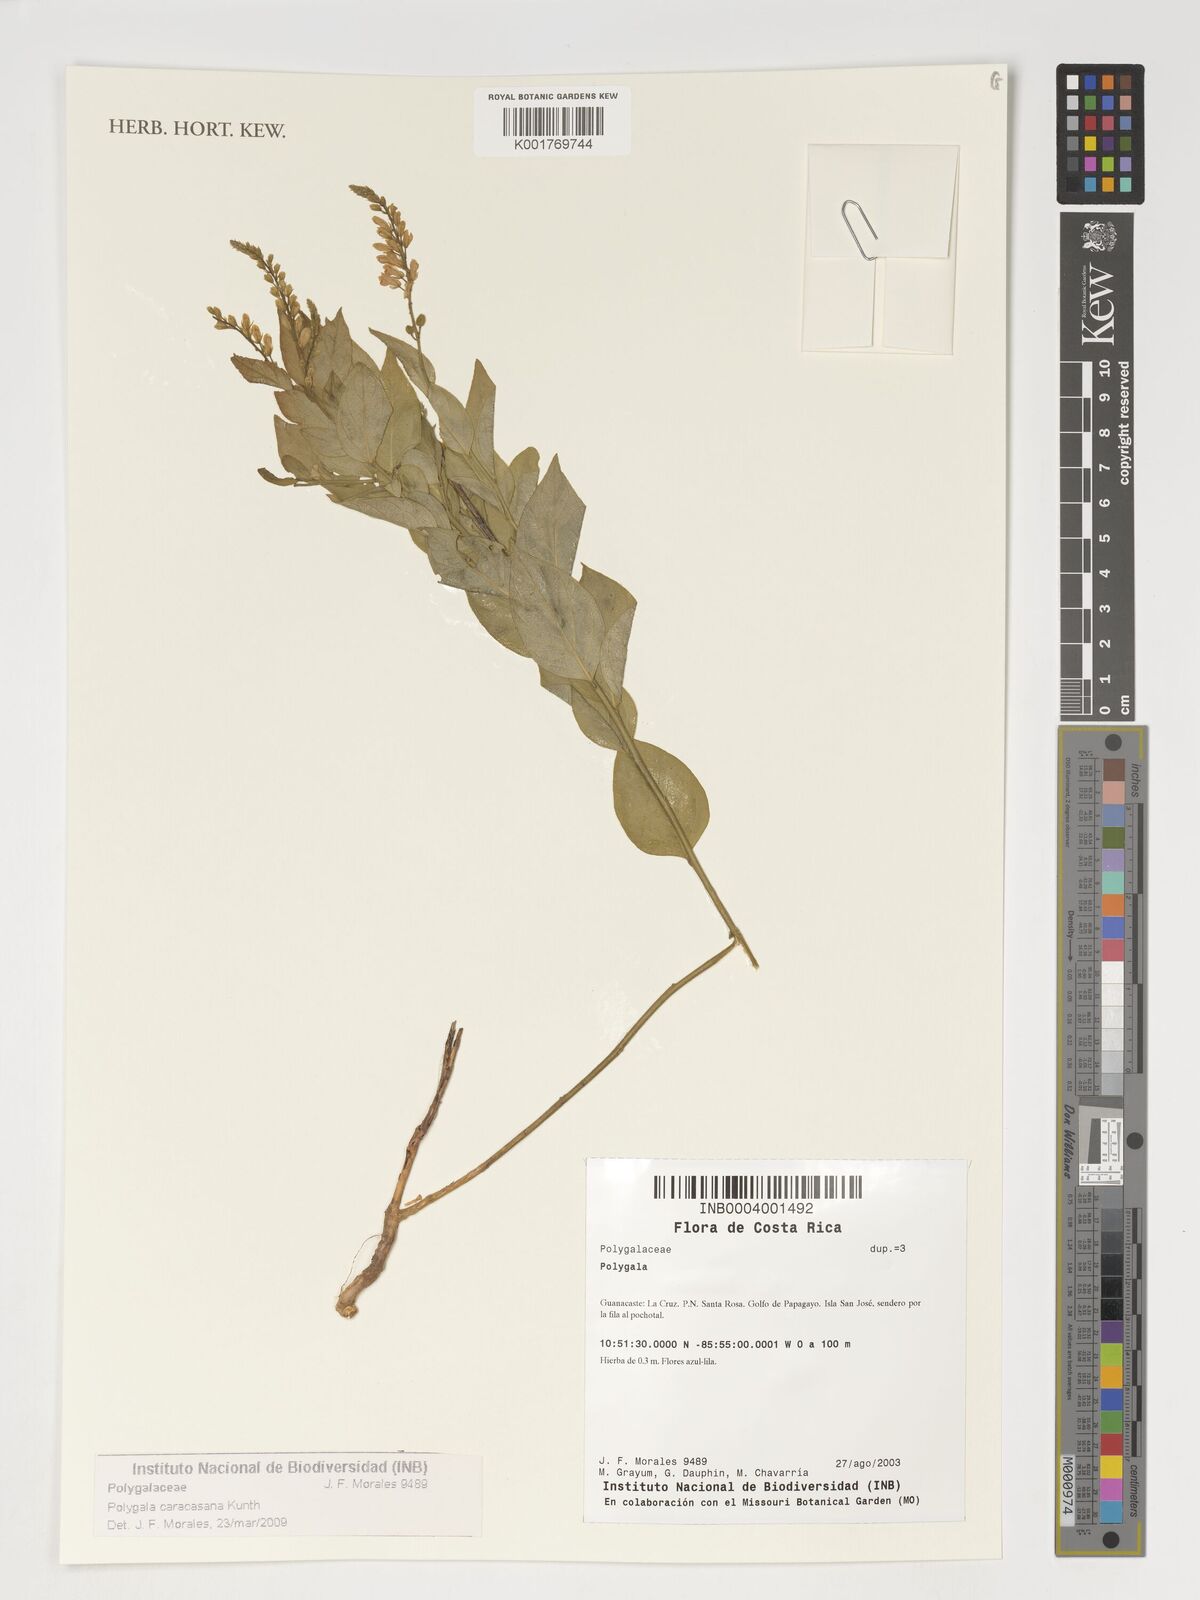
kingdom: Plantae
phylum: Tracheophyta
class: Magnoliopsida
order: Fabales
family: Polygalaceae
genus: Hebecarpa
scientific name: Hebecarpa caracasana
